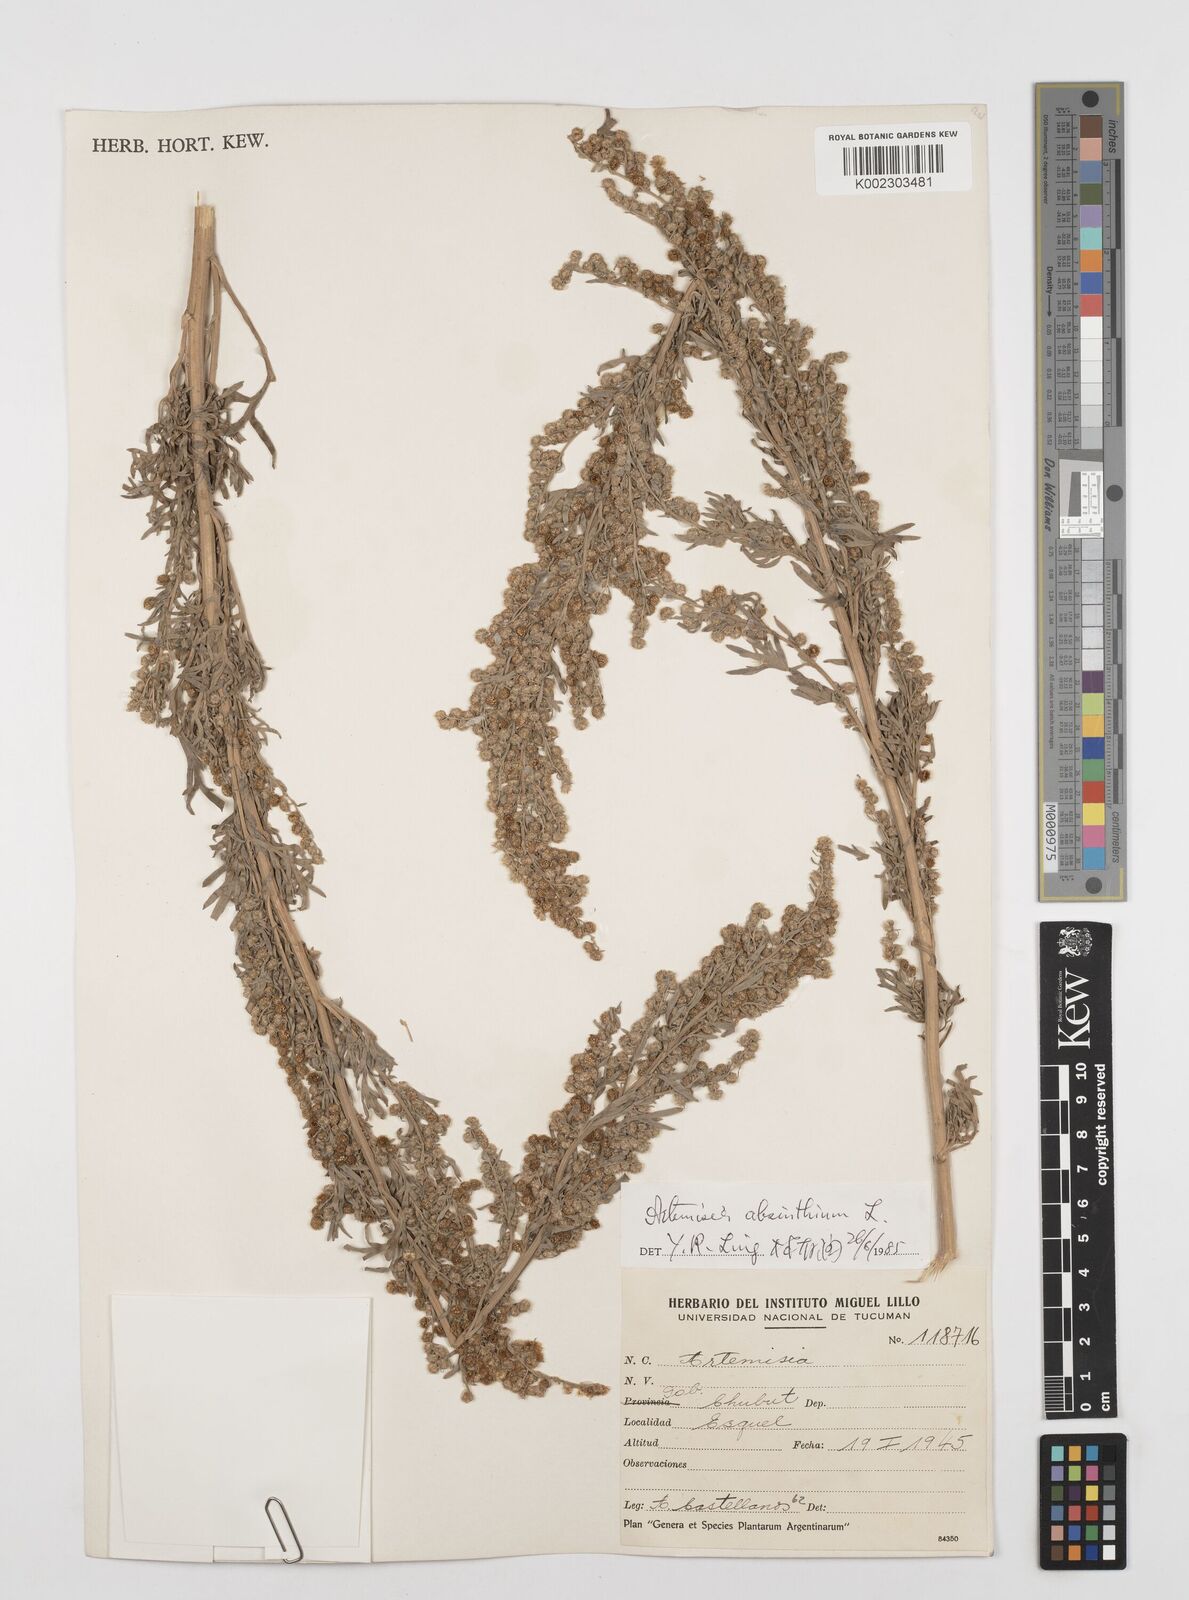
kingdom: Plantae
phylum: Tracheophyta
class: Magnoliopsida
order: Asterales
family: Asteraceae
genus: Artemisia
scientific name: Artemisia absinthium
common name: Wormwood
